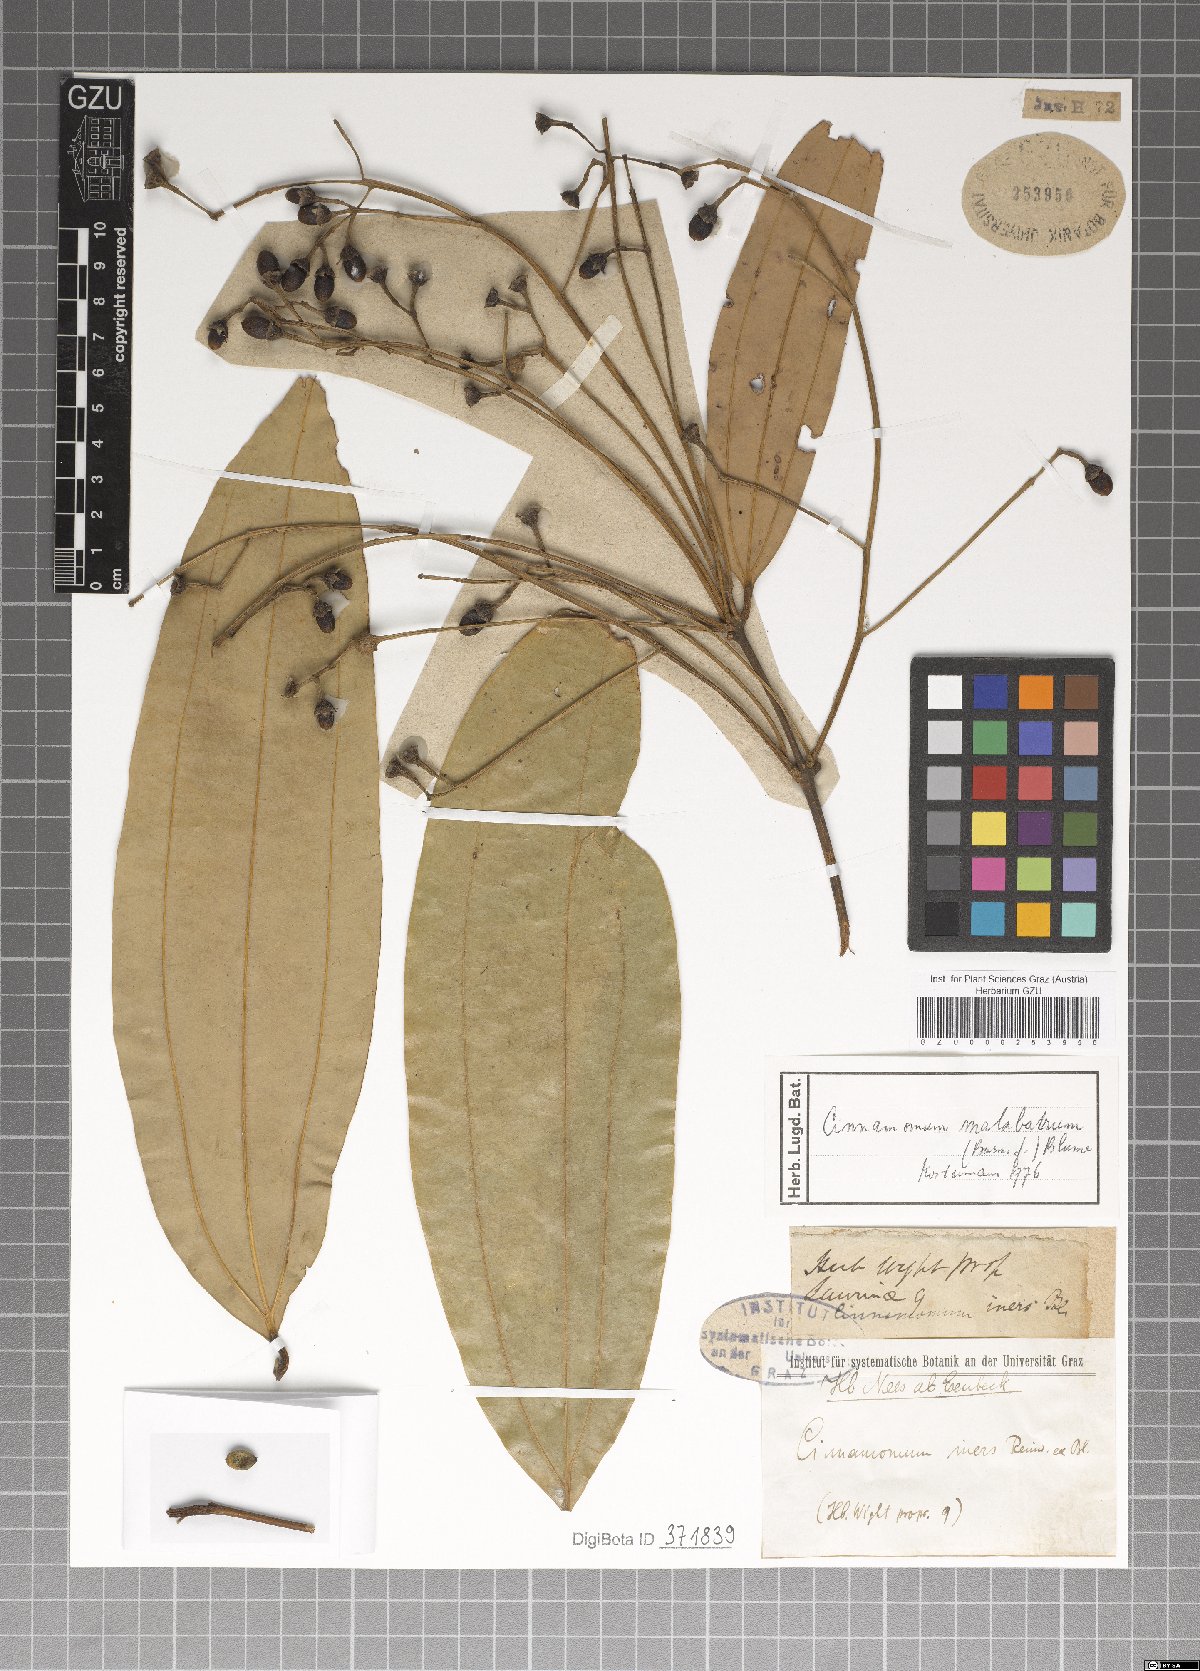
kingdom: Plantae
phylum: Tracheophyta
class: Magnoliopsida
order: Laurales
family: Lauraceae
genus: Cinnamomum
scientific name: Cinnamomum malabatrum
